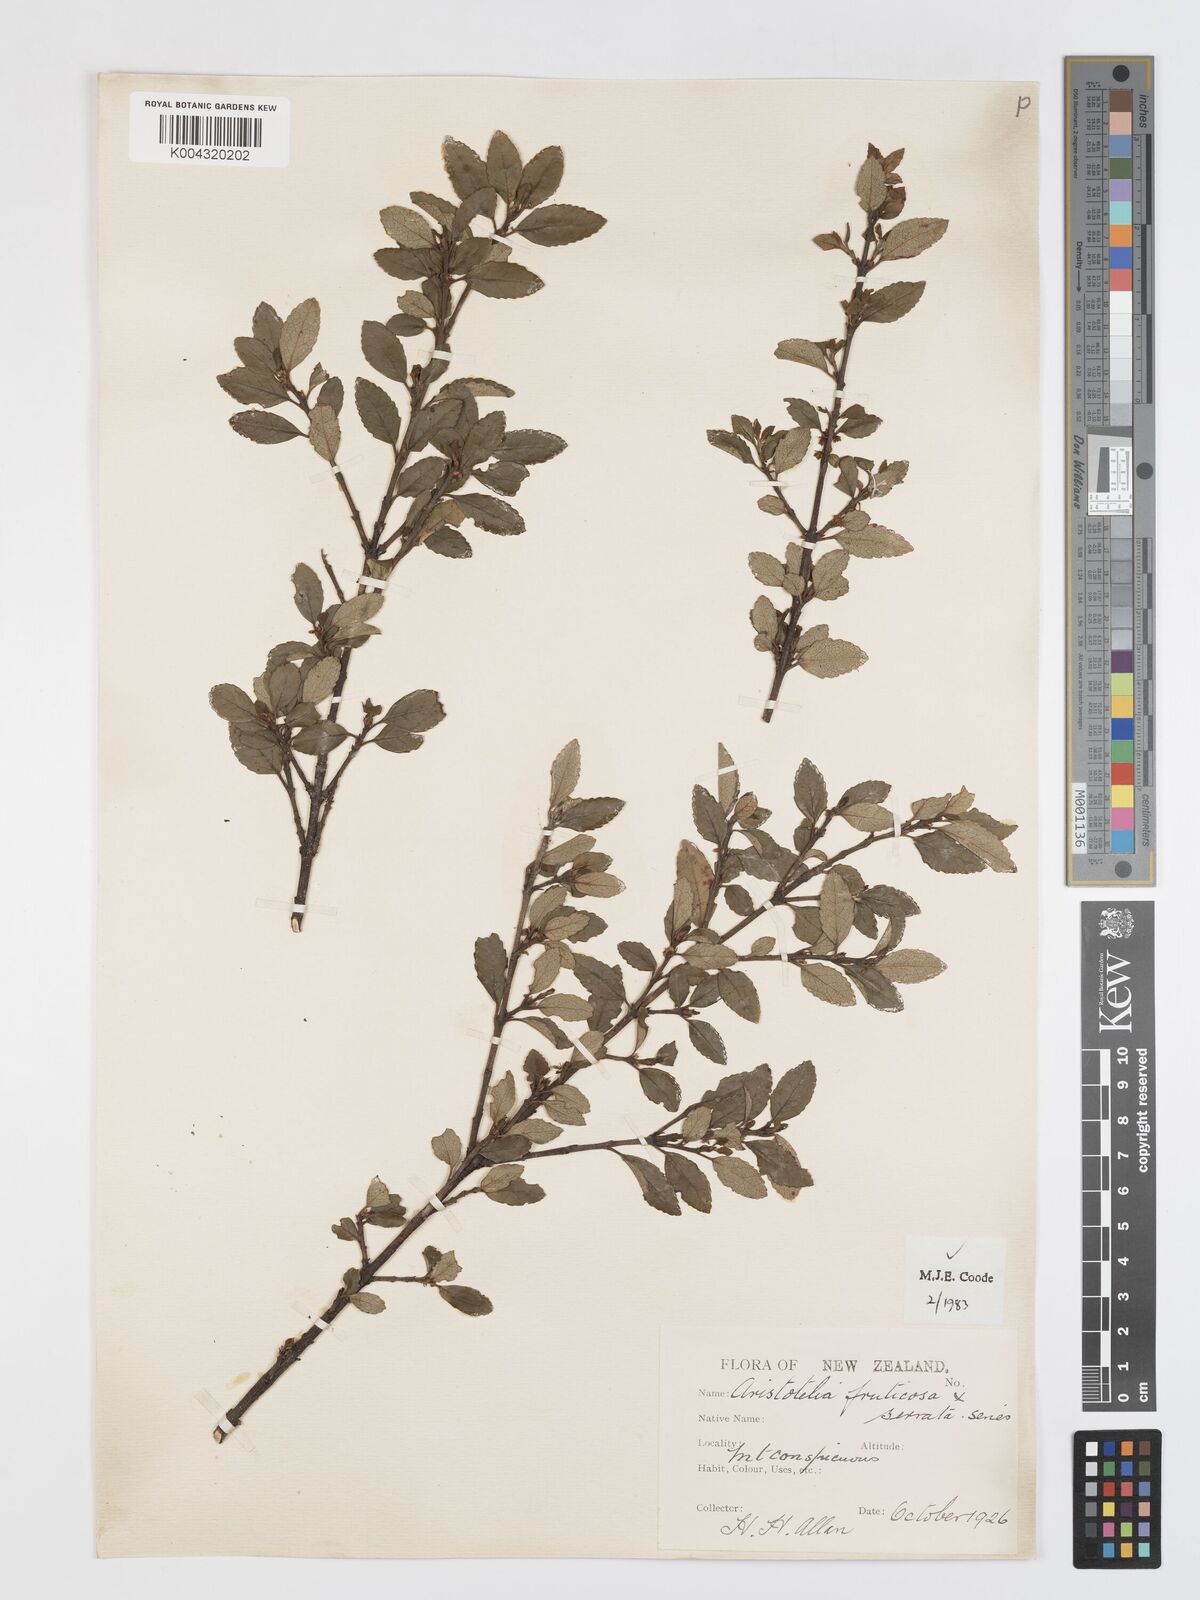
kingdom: Plantae
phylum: Tracheophyta
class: Magnoliopsida
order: Oxalidales
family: Elaeocarpaceae
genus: Aristotelia
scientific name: Aristotelia fruticosa
